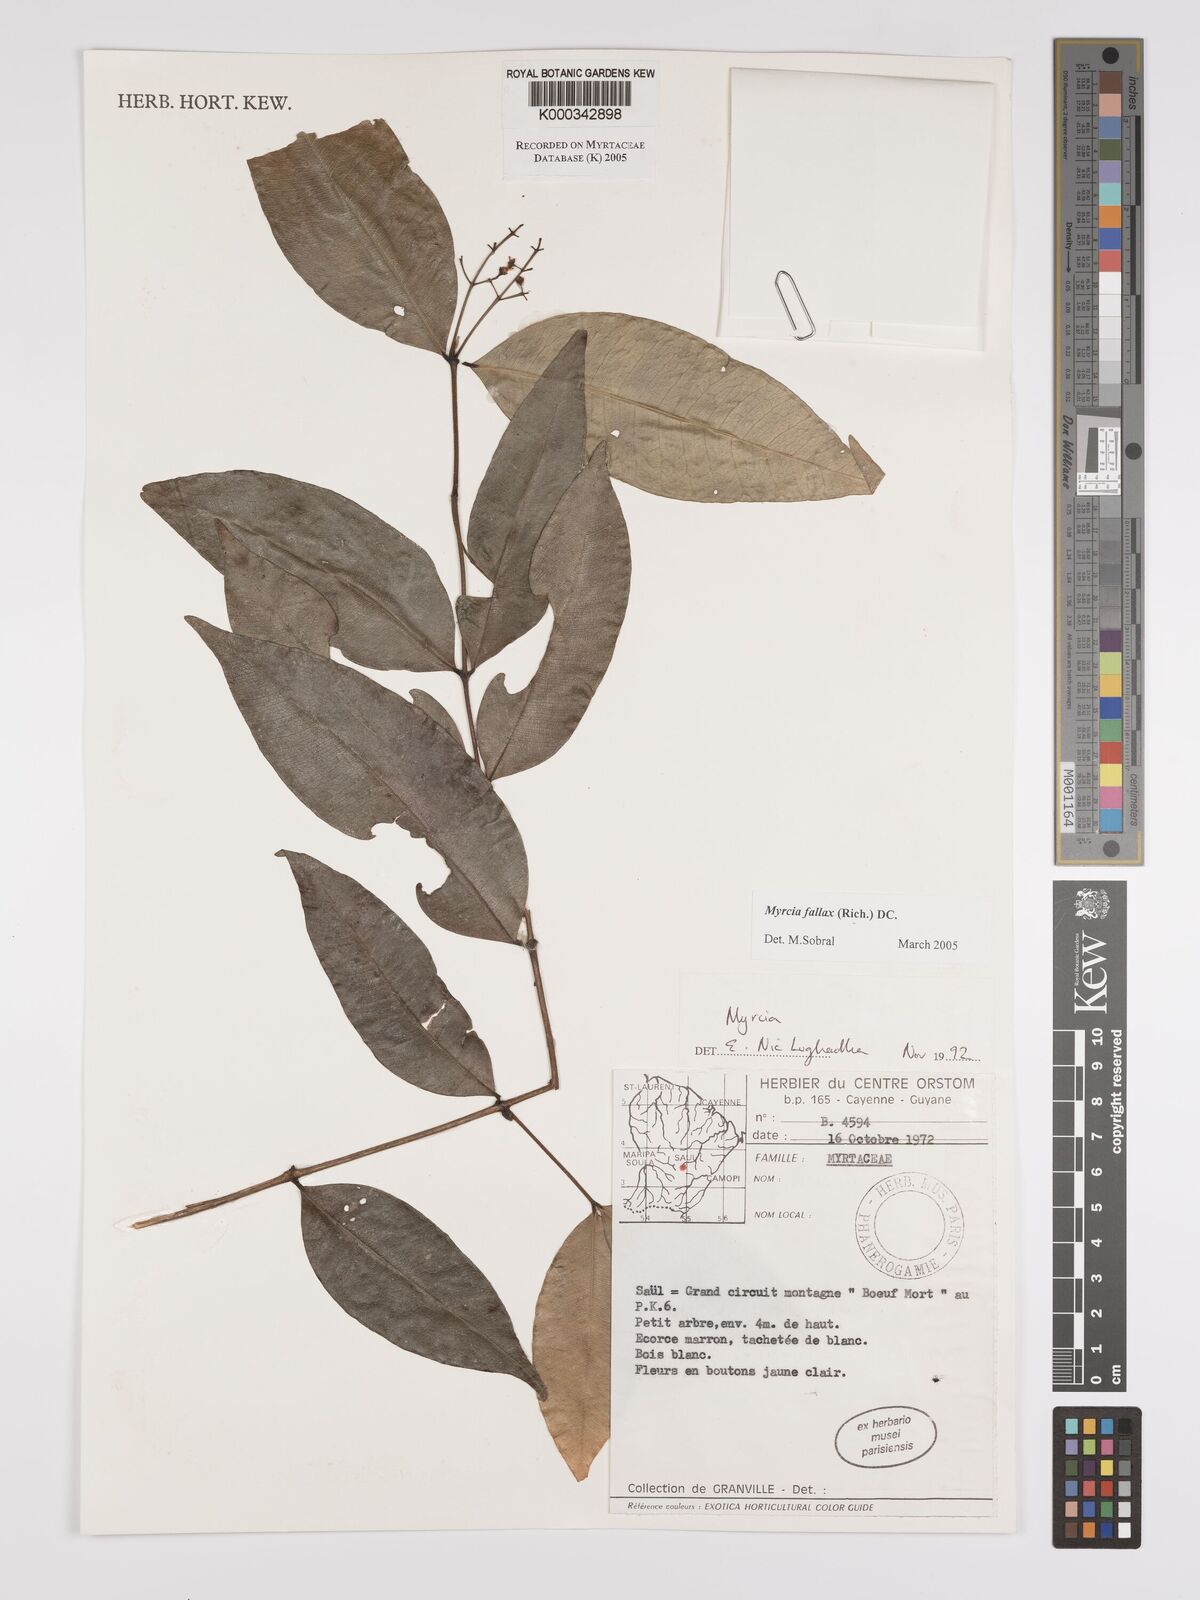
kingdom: Plantae
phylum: Tracheophyta
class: Magnoliopsida
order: Myrtales
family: Myrtaceae
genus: Myrcia
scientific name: Myrcia splendens
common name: Surinam cherry
